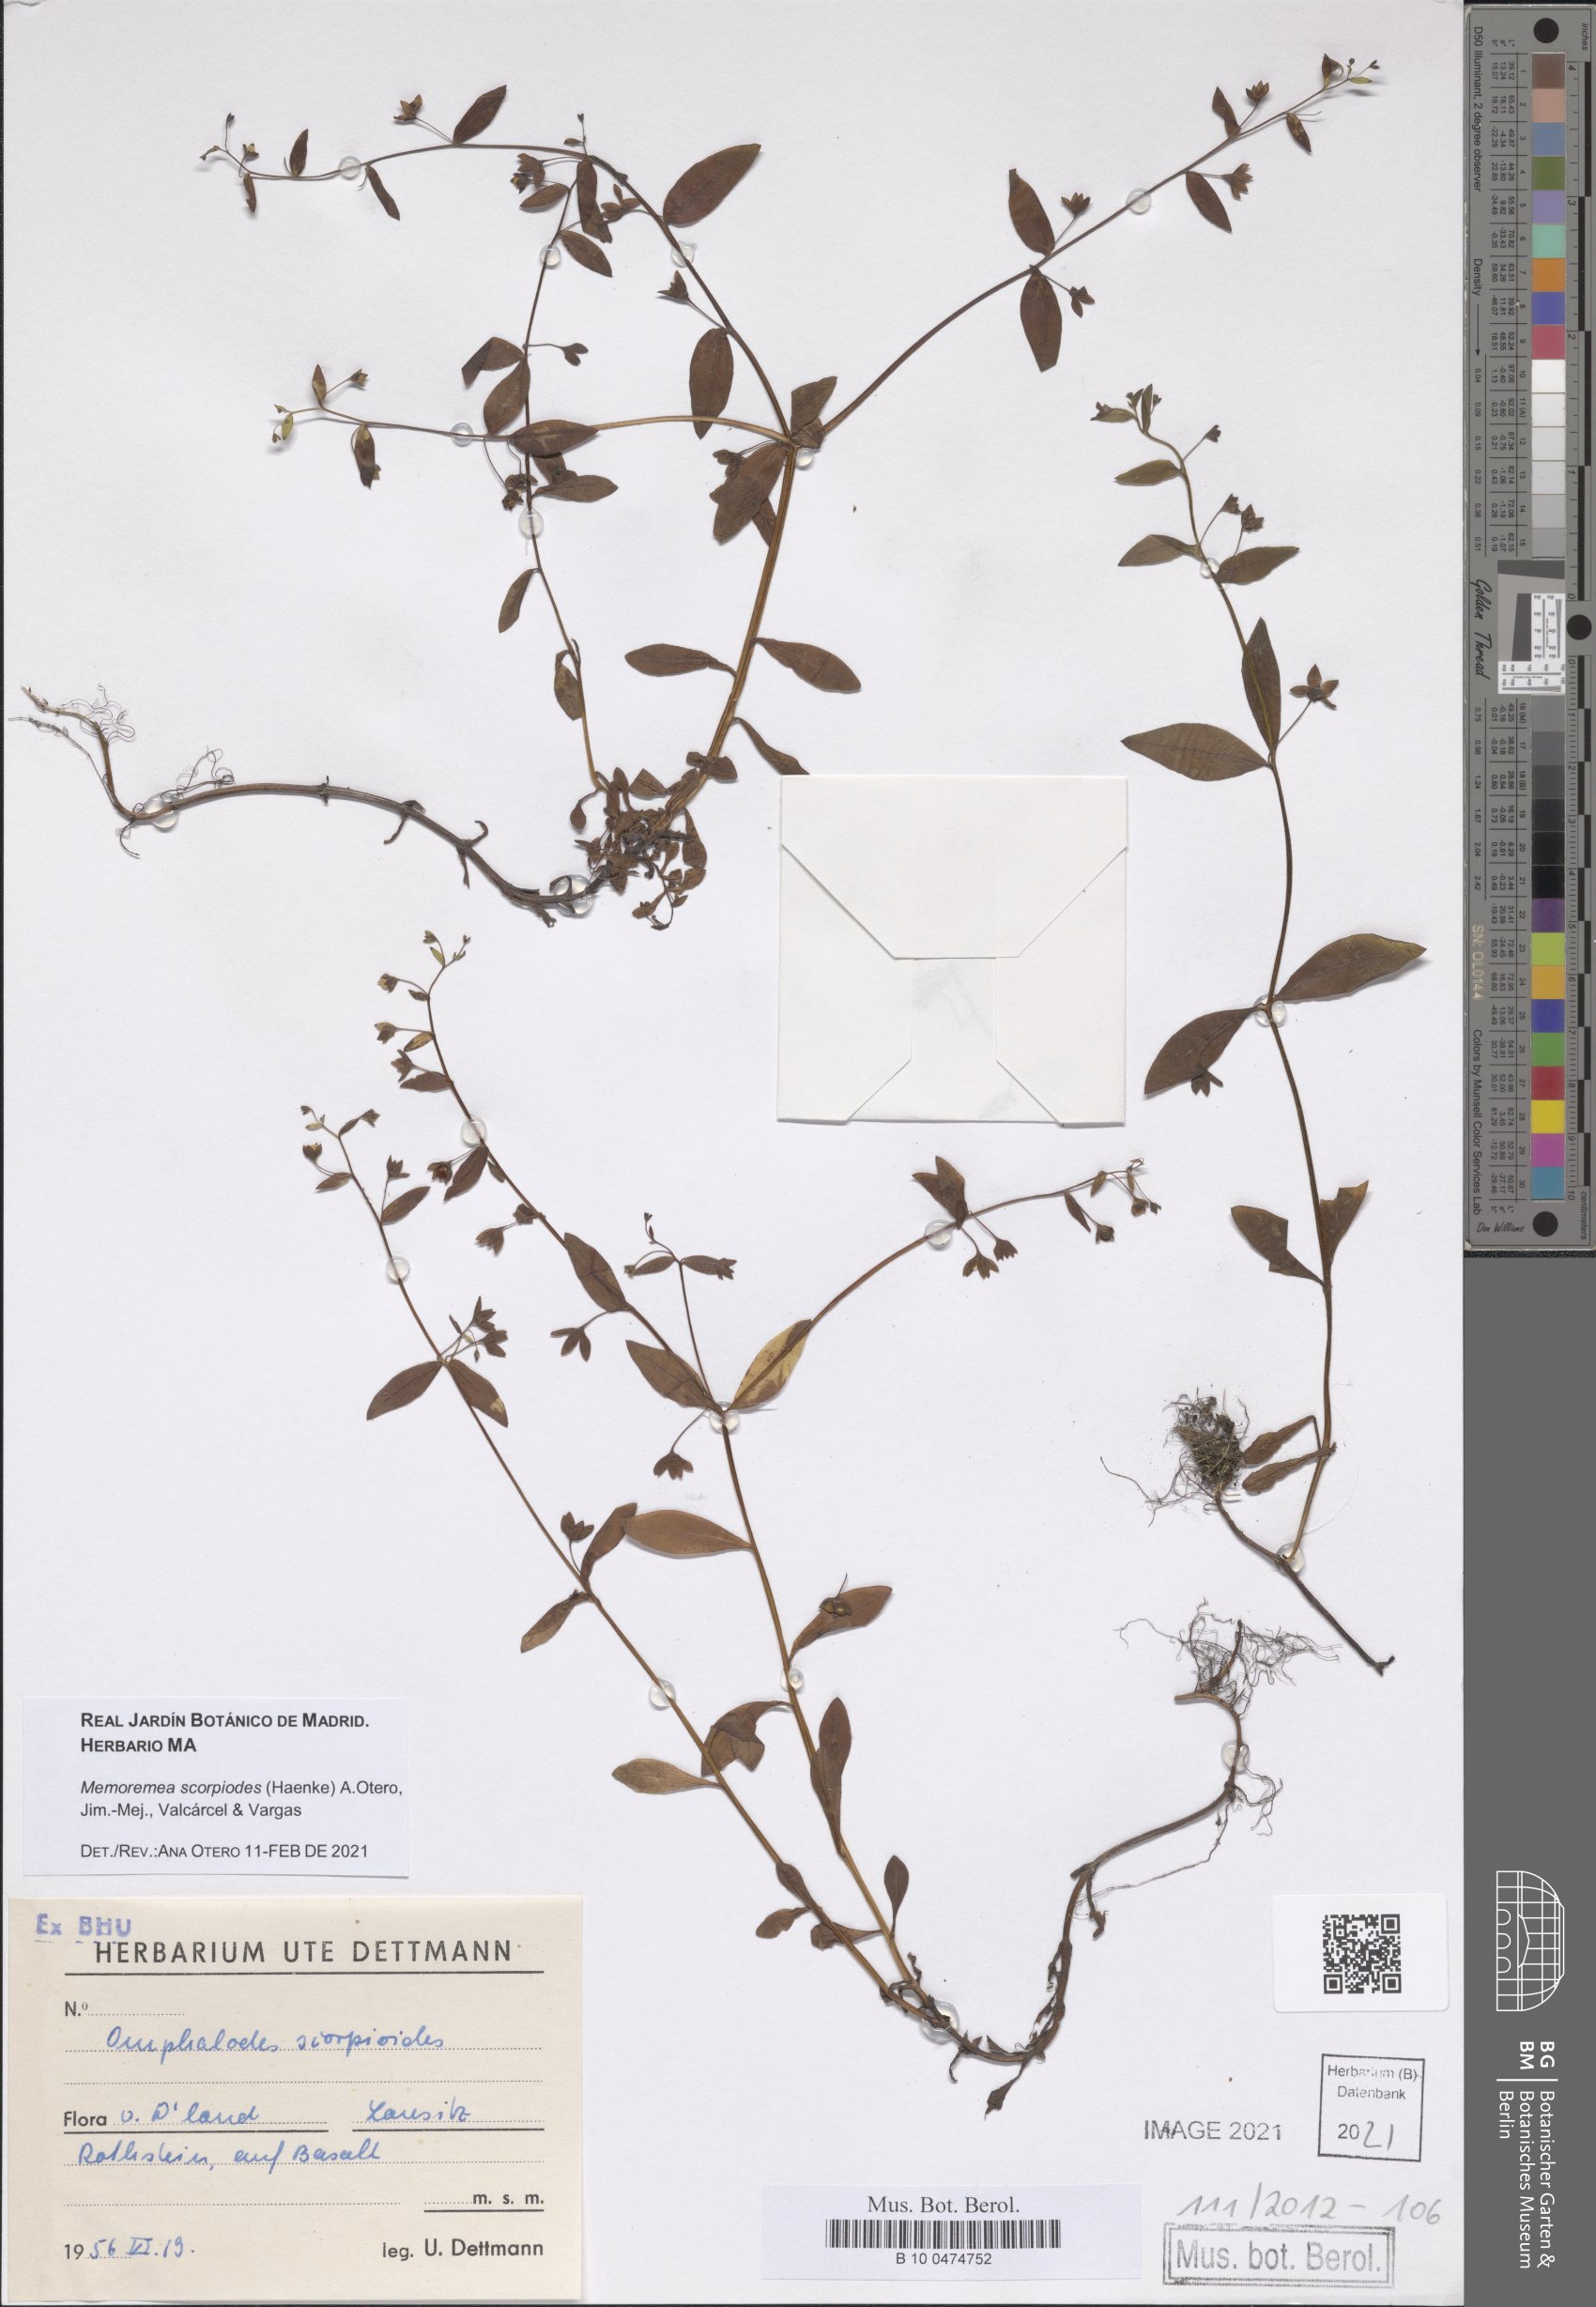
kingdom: Plantae
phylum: Tracheophyta
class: Magnoliopsida
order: Boraginales
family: Boraginaceae
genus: Memoremea
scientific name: Memoremea scorpioides
